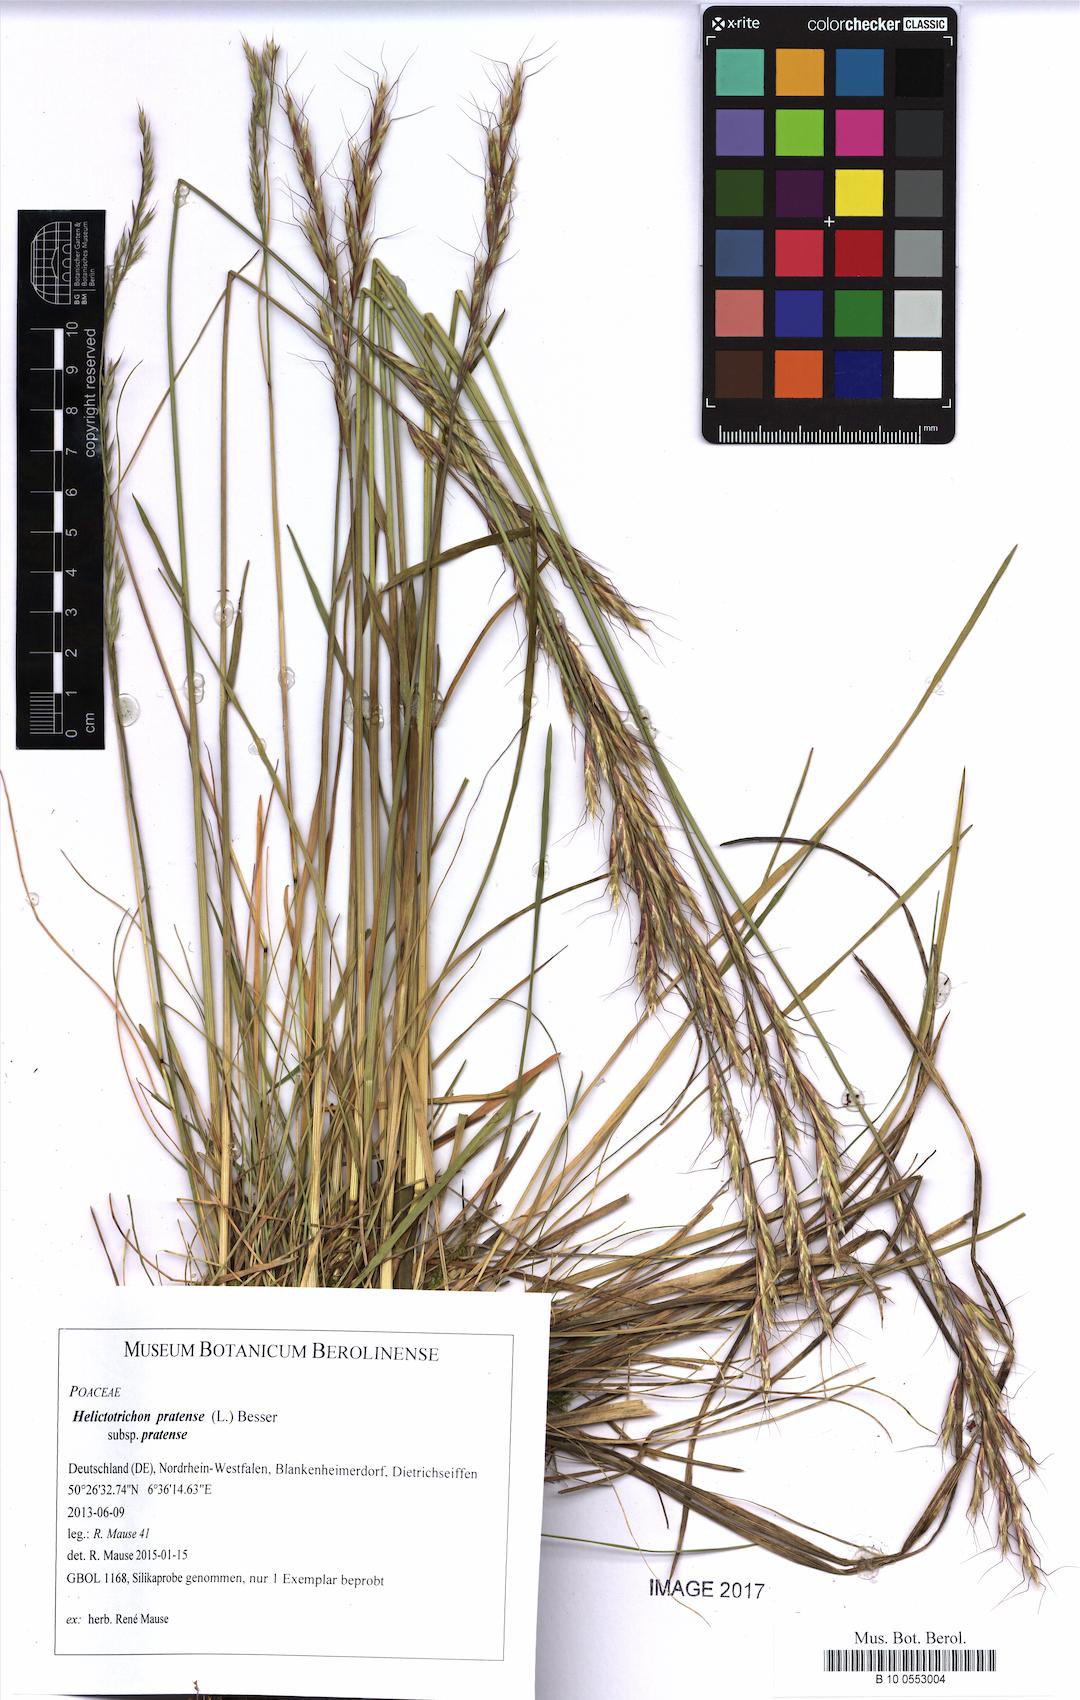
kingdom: Plantae
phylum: Tracheophyta
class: Liliopsida
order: Poales
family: Poaceae
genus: Helictotrichon
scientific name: Helictotrichon pratense
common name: Meadow oat-grass
